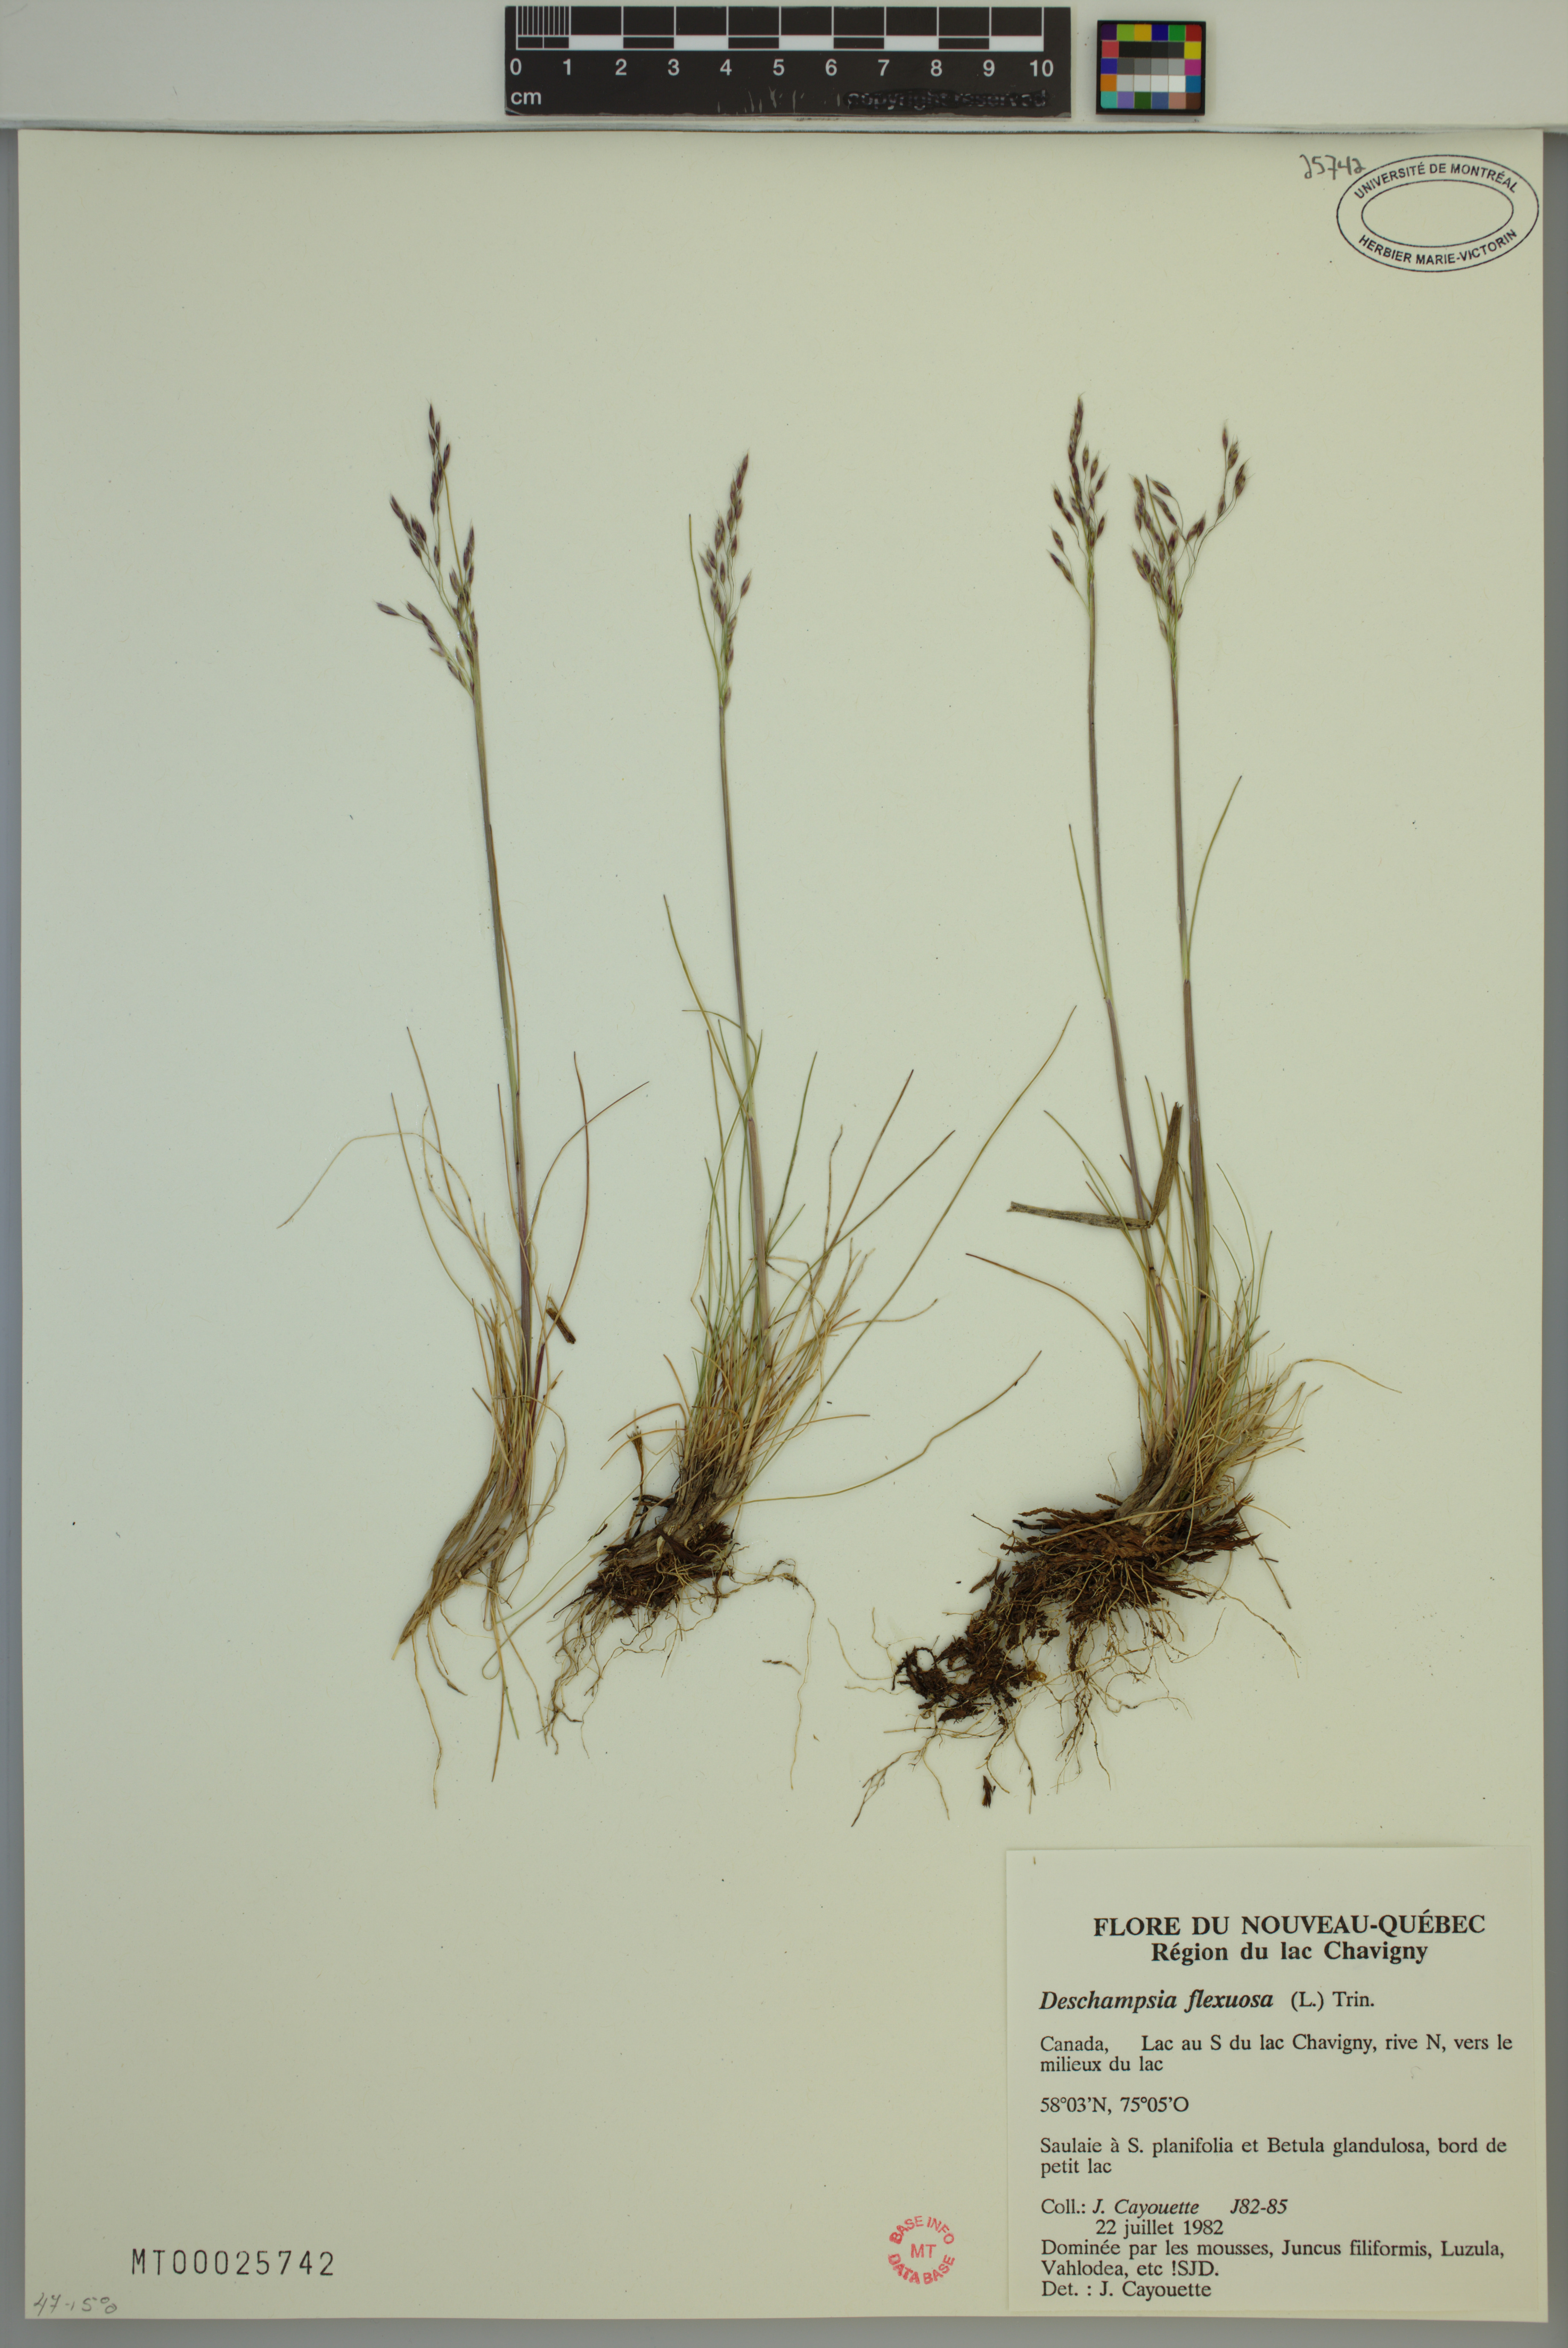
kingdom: Plantae
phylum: Tracheophyta
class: Liliopsida
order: Poales
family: Poaceae
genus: Avenella
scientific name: Avenella flexuosa
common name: Wavy hairgrass
